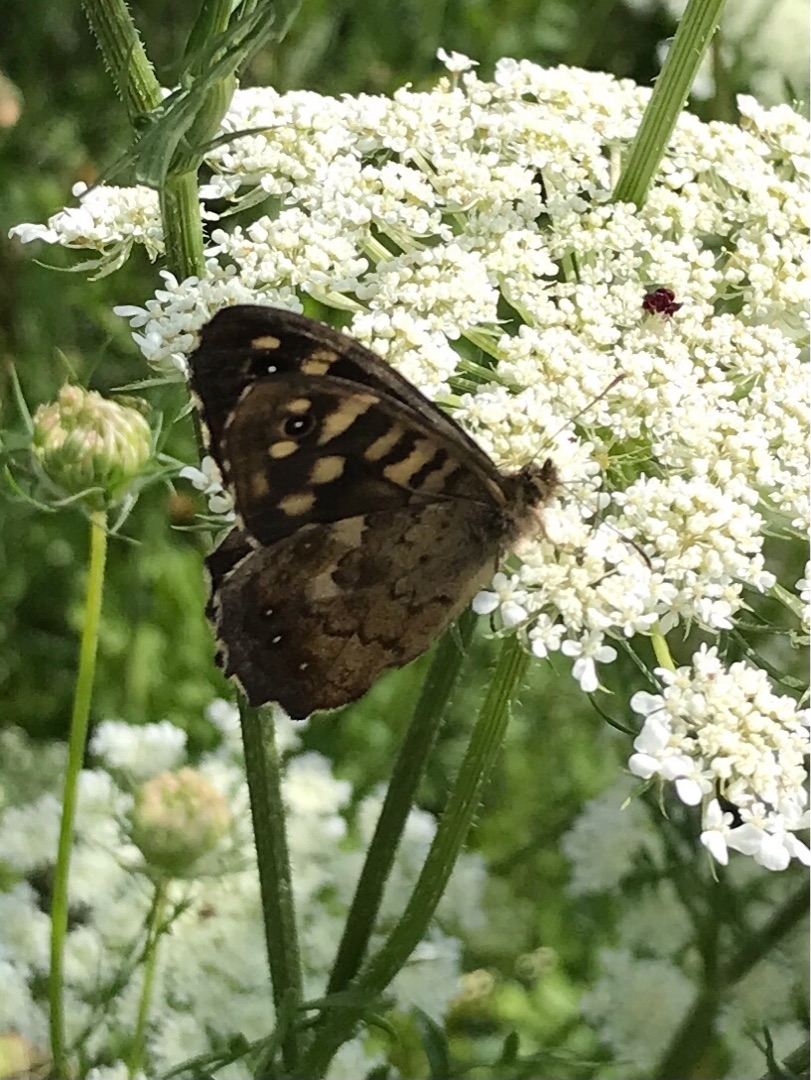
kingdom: Animalia
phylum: Arthropoda
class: Insecta
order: Lepidoptera
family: Nymphalidae
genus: Pararge
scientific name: Pararge aegeria
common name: Skovrandøje
